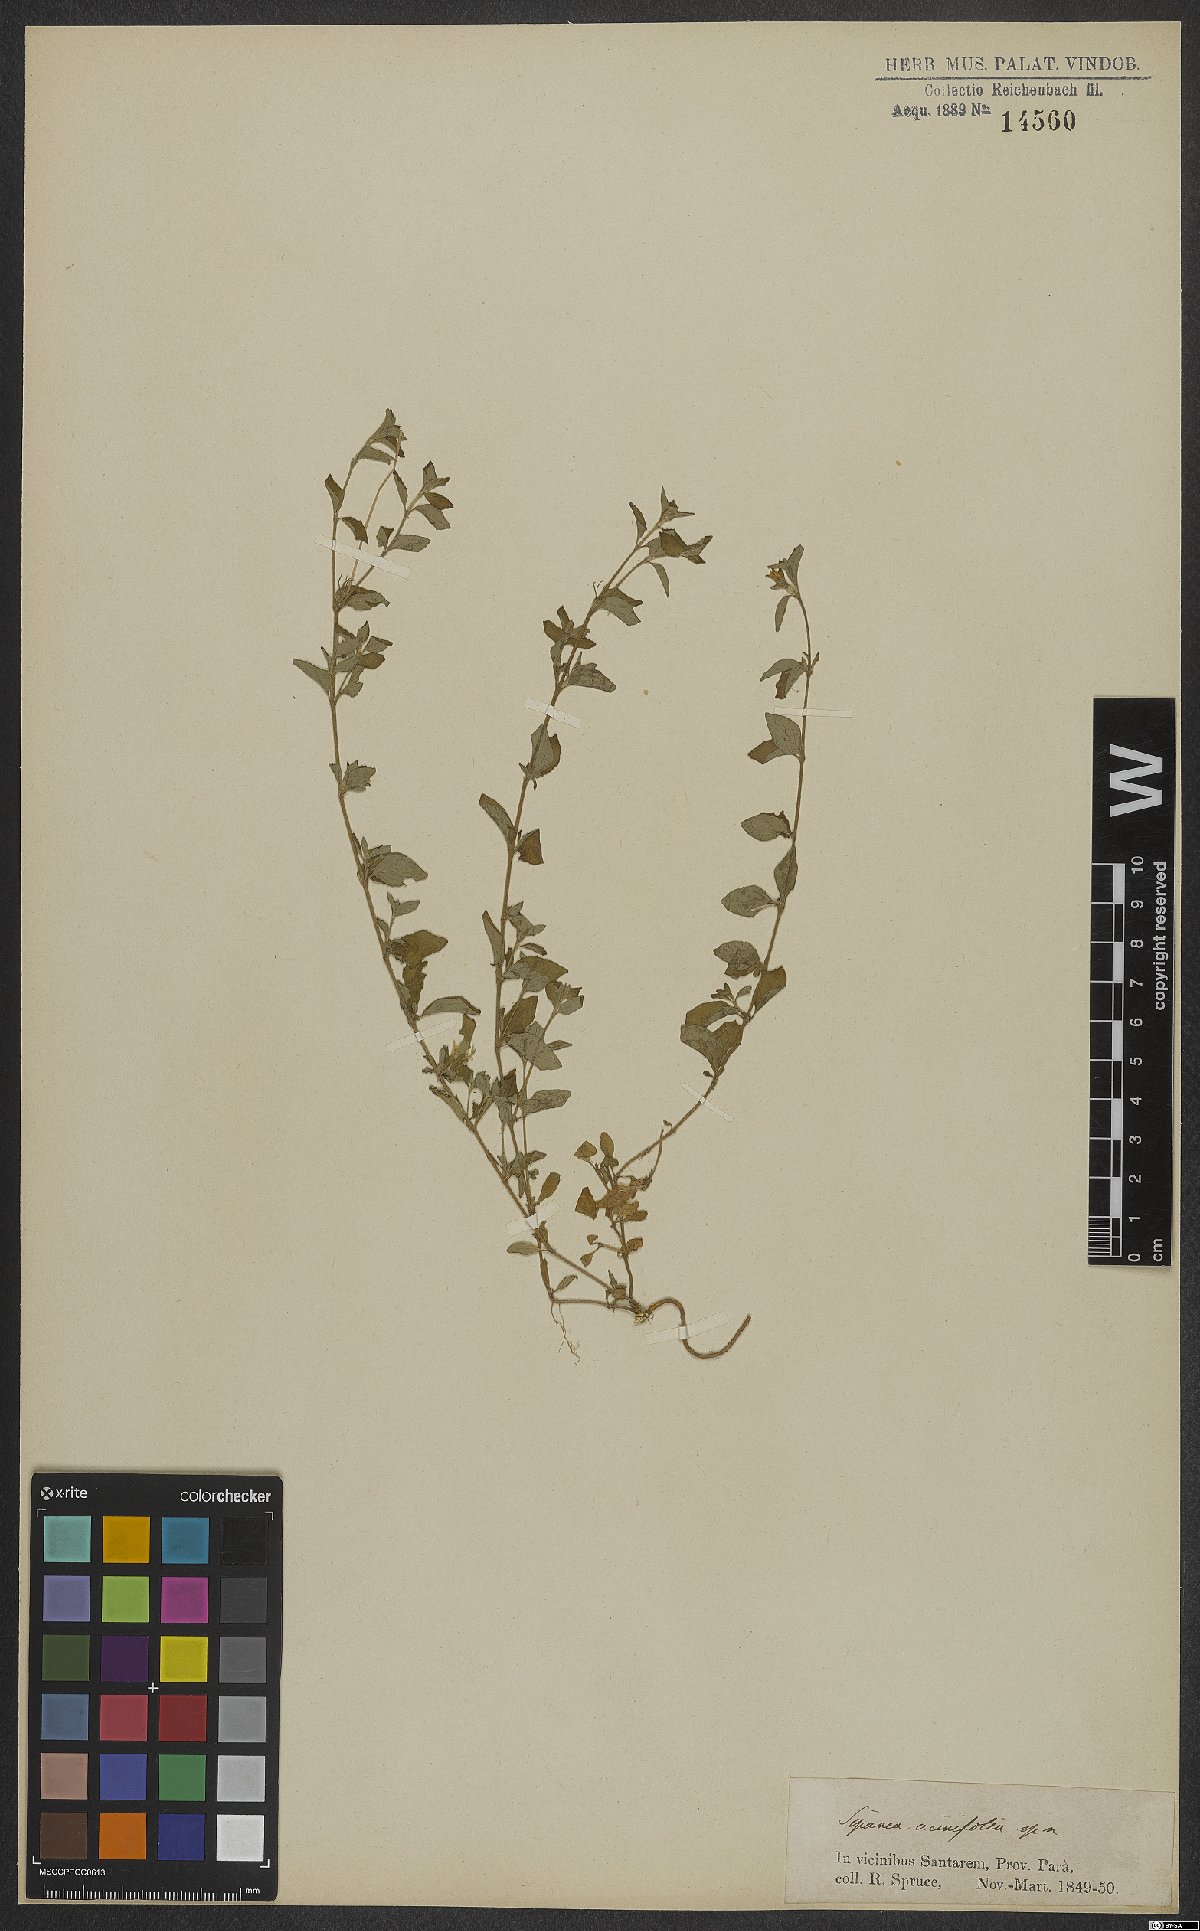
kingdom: Plantae
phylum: Tracheophyta
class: Magnoliopsida
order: Gentianales
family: Rubiaceae
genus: Sipanea
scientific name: Sipanea pratensis
